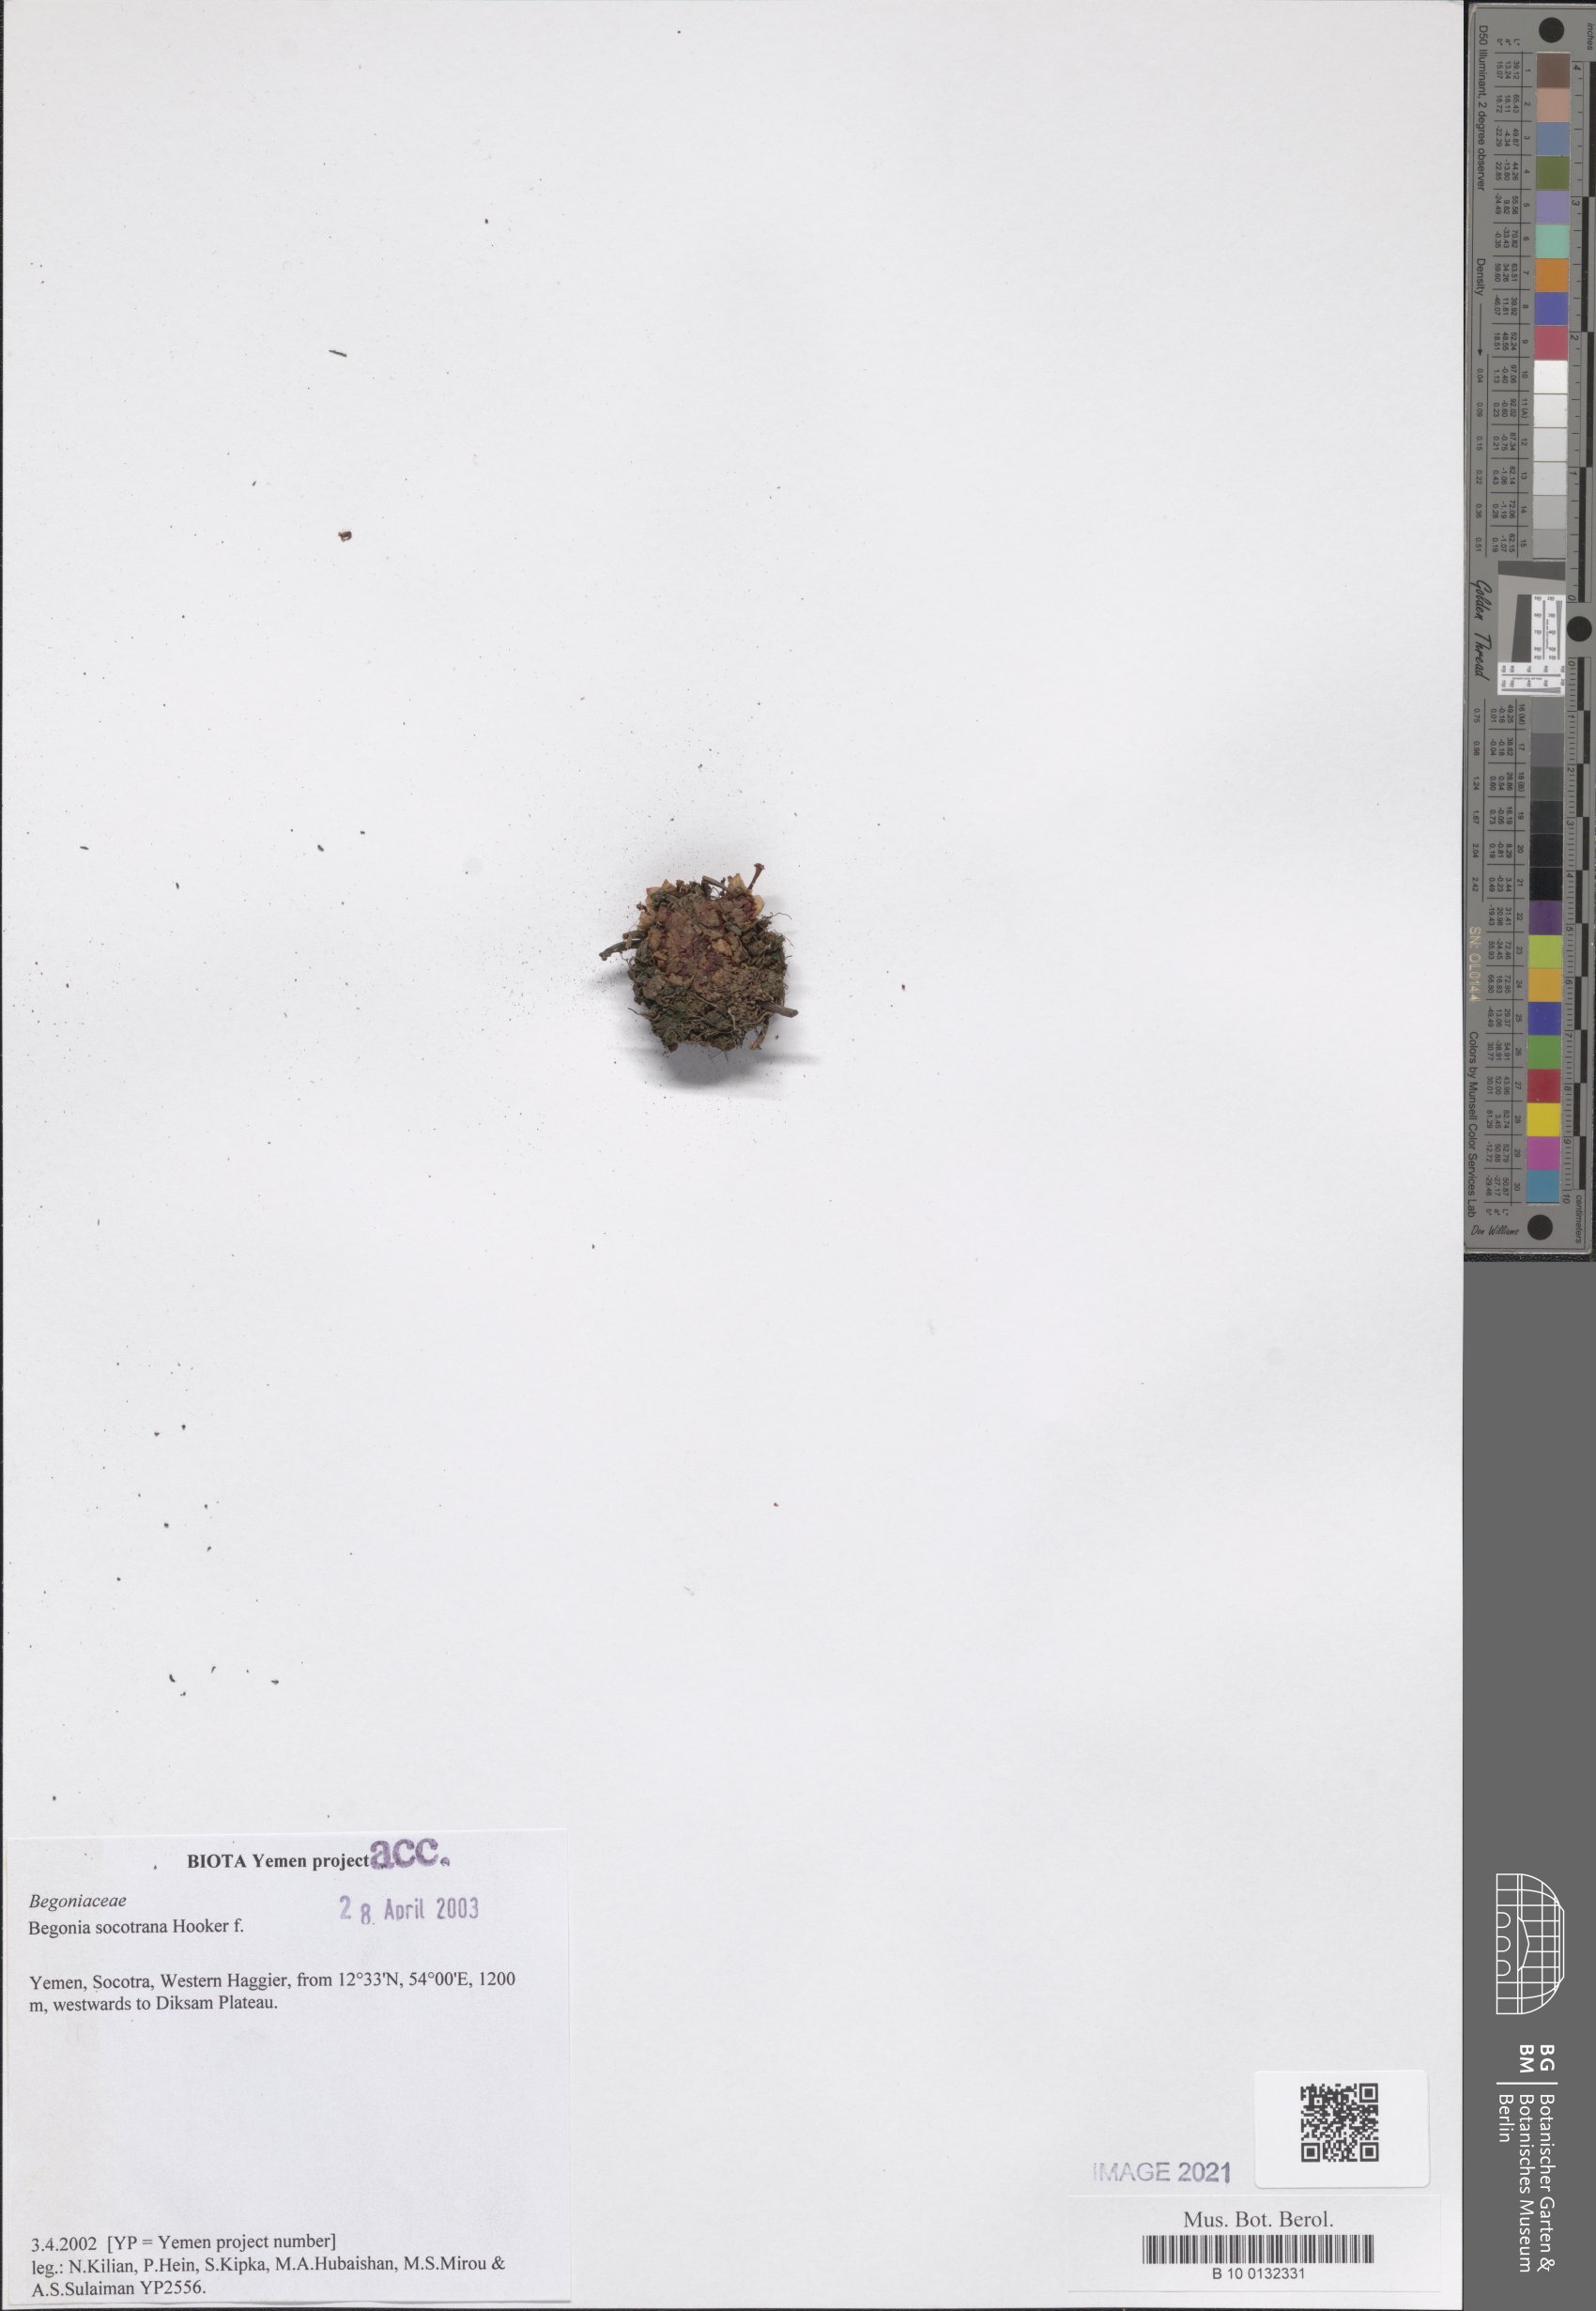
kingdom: Plantae
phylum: Tracheophyta
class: Magnoliopsida
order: Cucurbitales
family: Begoniaceae
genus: Begonia
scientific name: Begonia socotrana
